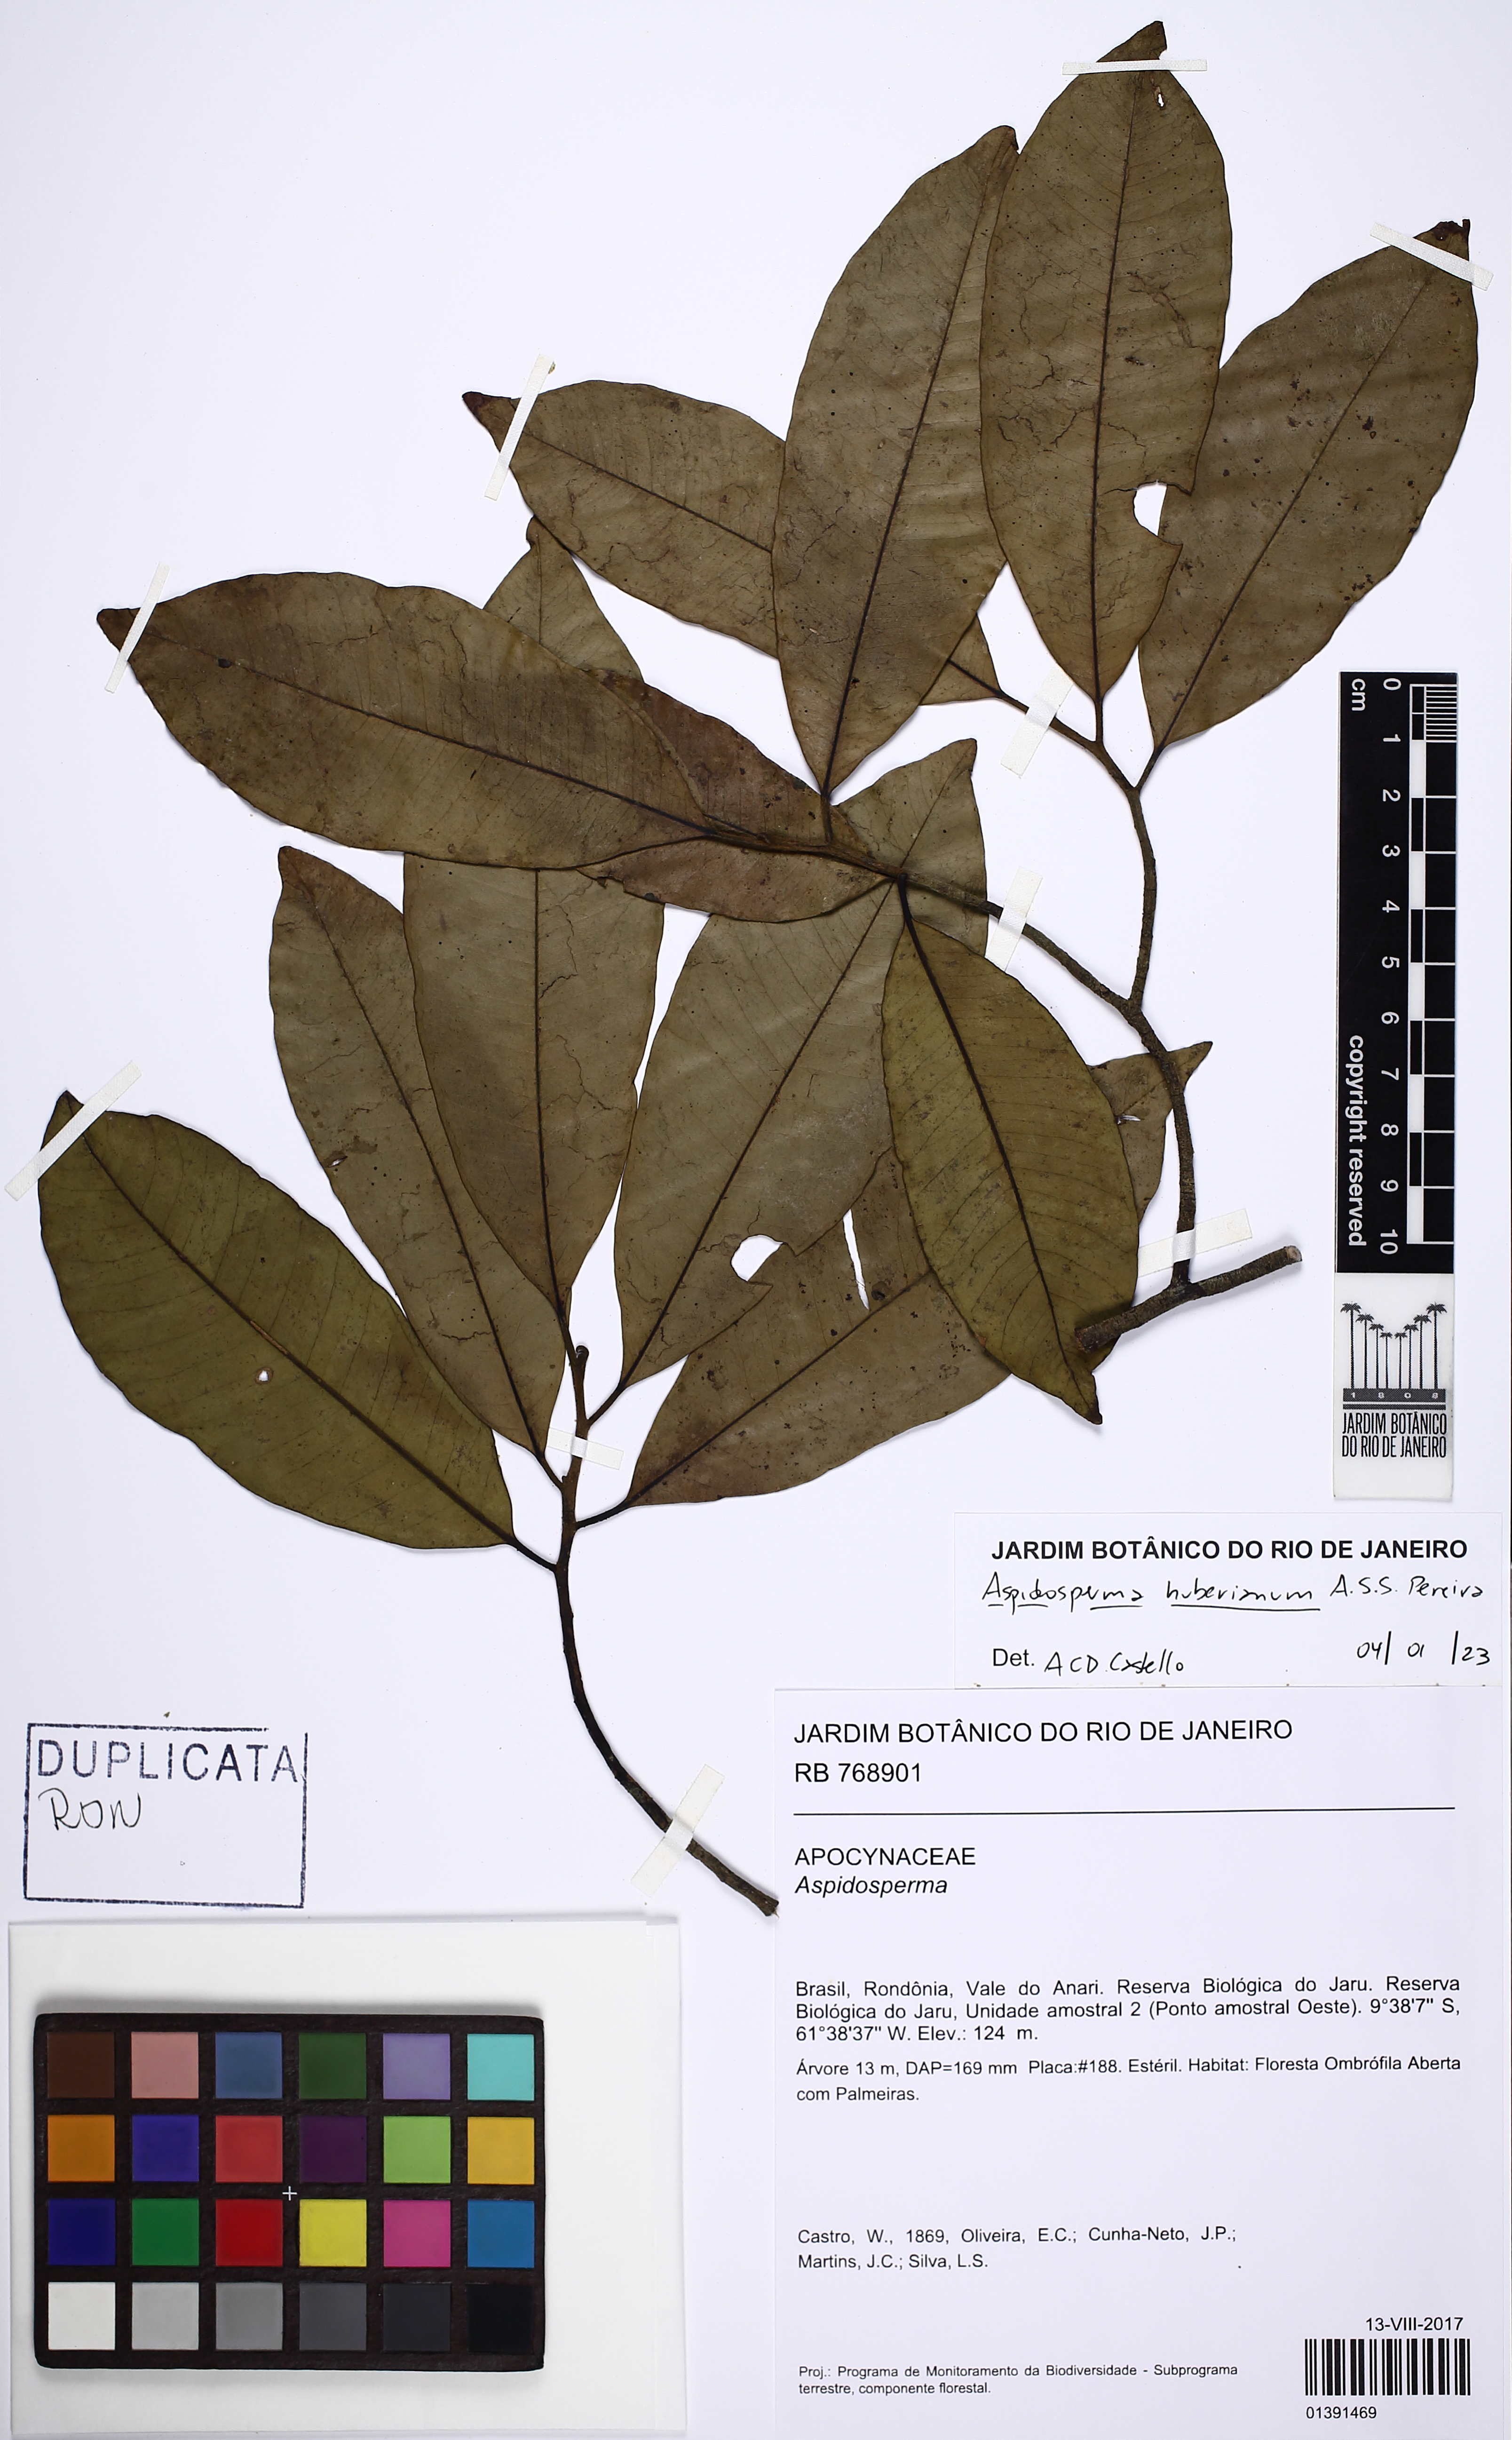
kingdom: Plantae
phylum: Tracheophyta
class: Magnoliopsida
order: Gentianales
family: Apocynaceae
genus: Aspidosperma
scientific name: Aspidosperma huberianum
